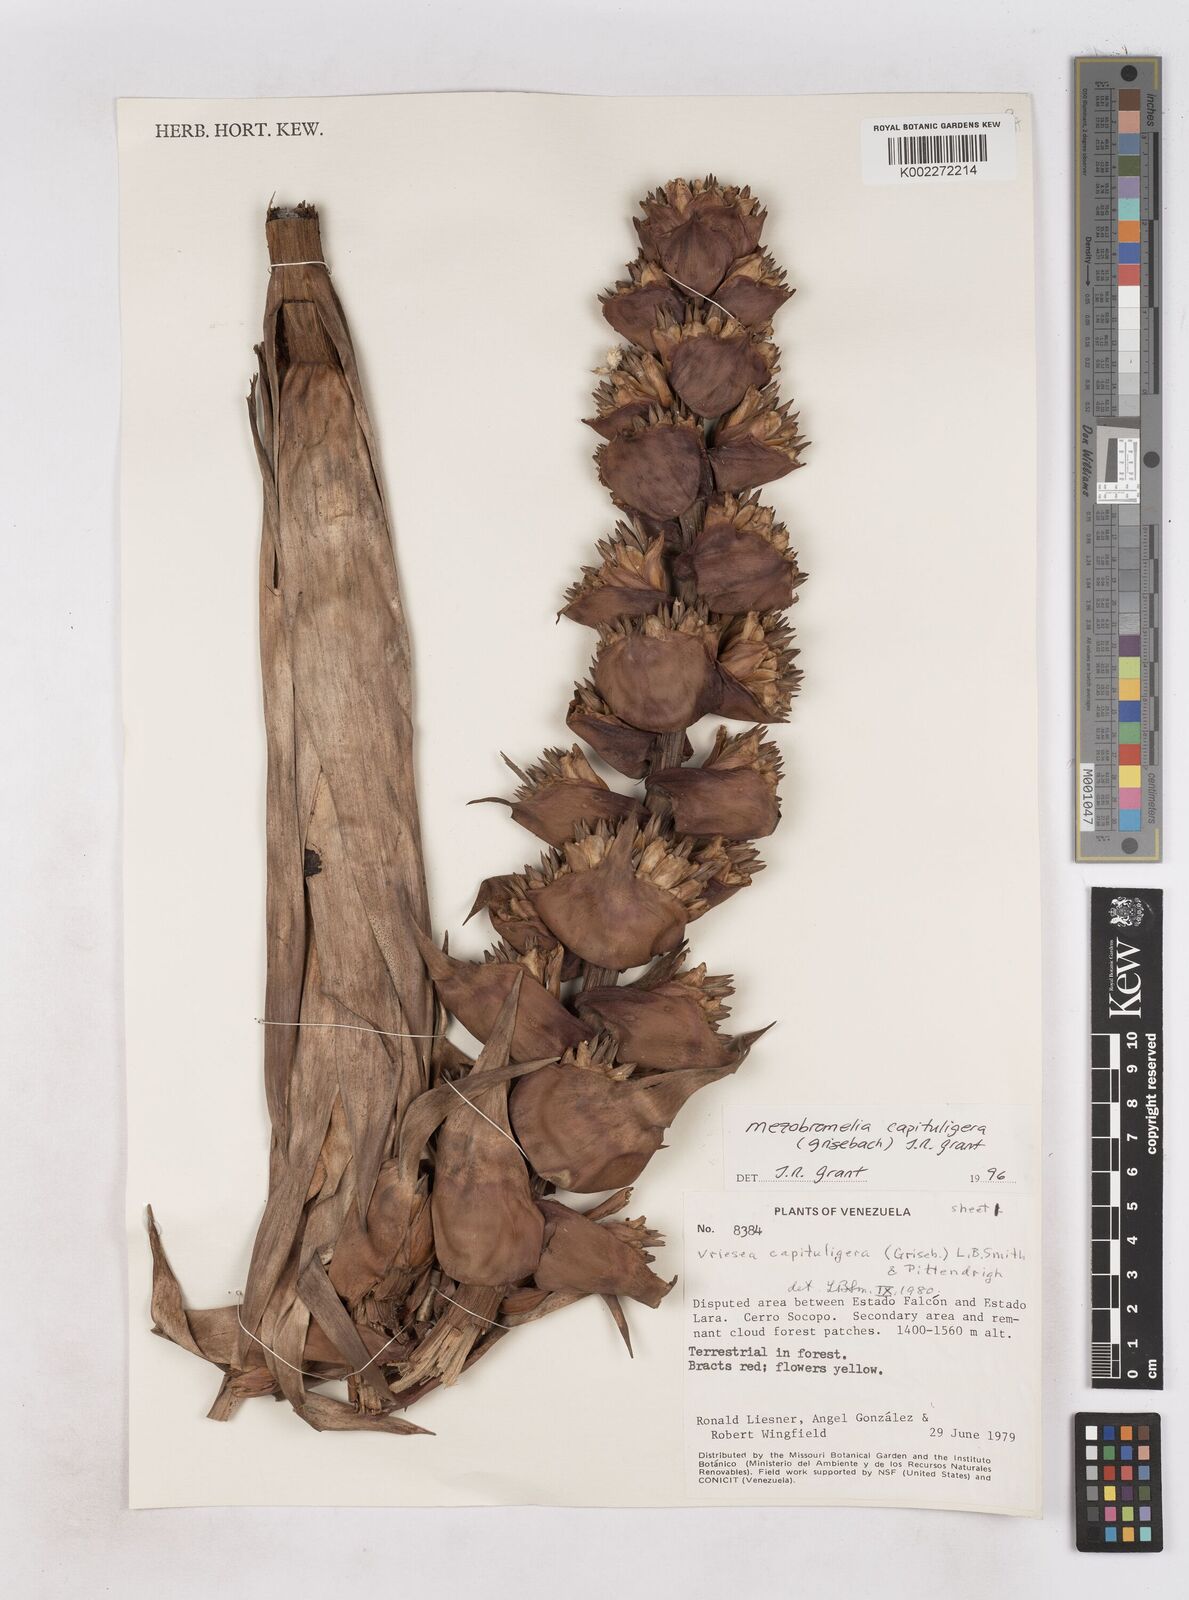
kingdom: Plantae
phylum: Tracheophyta
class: Liliopsida
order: Poales
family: Bromeliaceae
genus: Cipuropsis
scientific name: Cipuropsis capituligera
